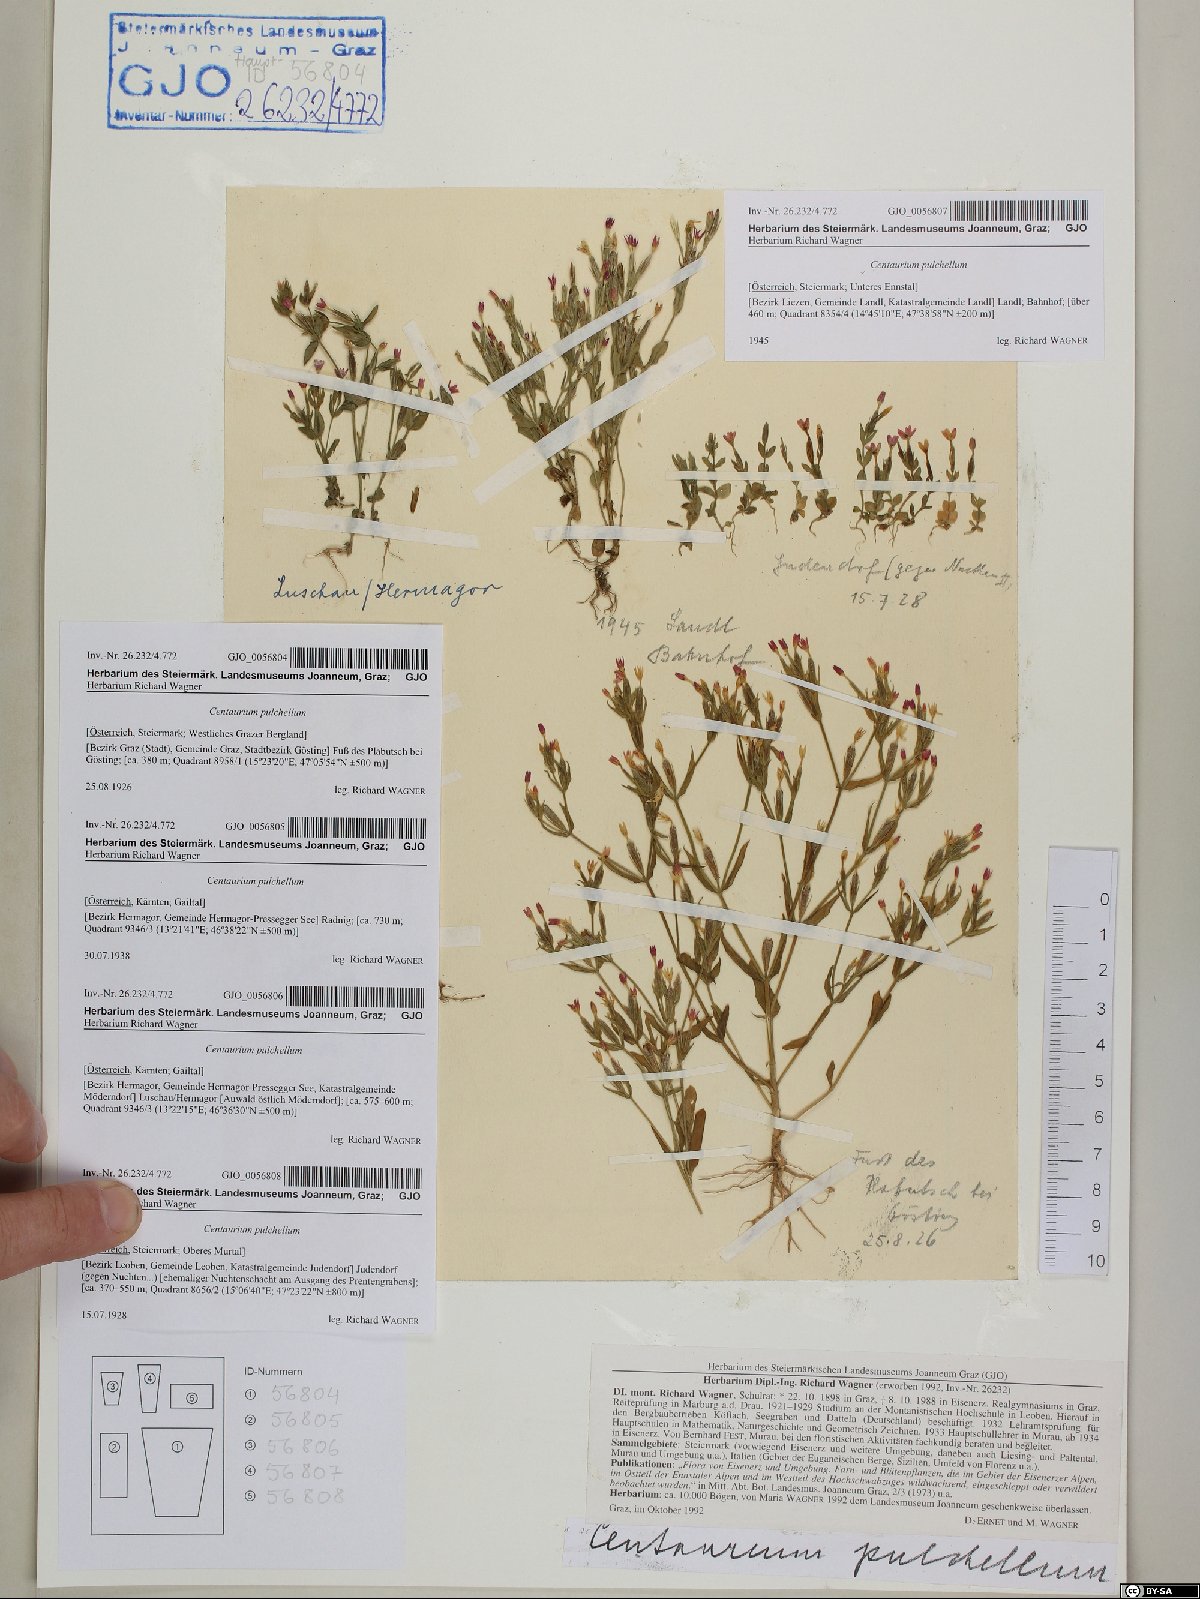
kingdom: Plantae
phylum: Tracheophyta
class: Magnoliopsida
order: Gentianales
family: Gentianaceae
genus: Centaurium
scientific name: Centaurium pulchellum
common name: Lesser centaury
